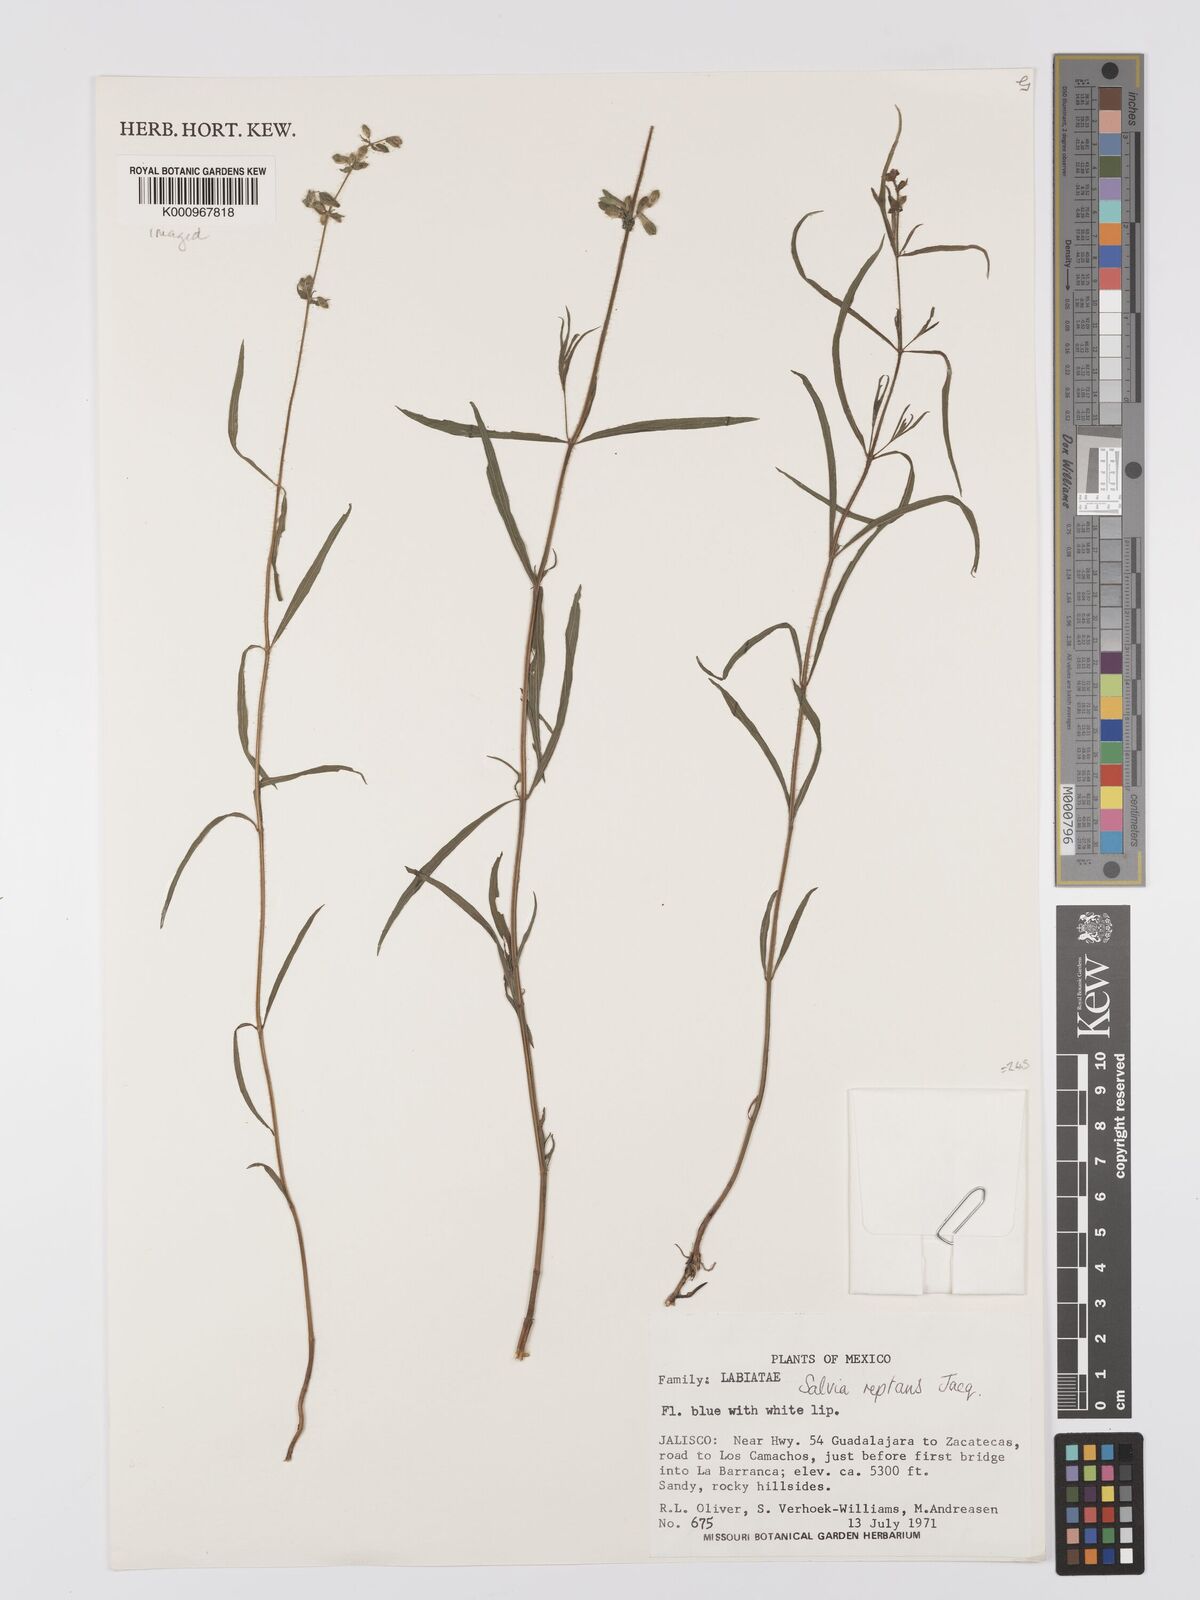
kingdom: Plantae
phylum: Tracheophyta
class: Magnoliopsida
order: Lamiales
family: Lamiaceae
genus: Salvia
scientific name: Salvia reptans
